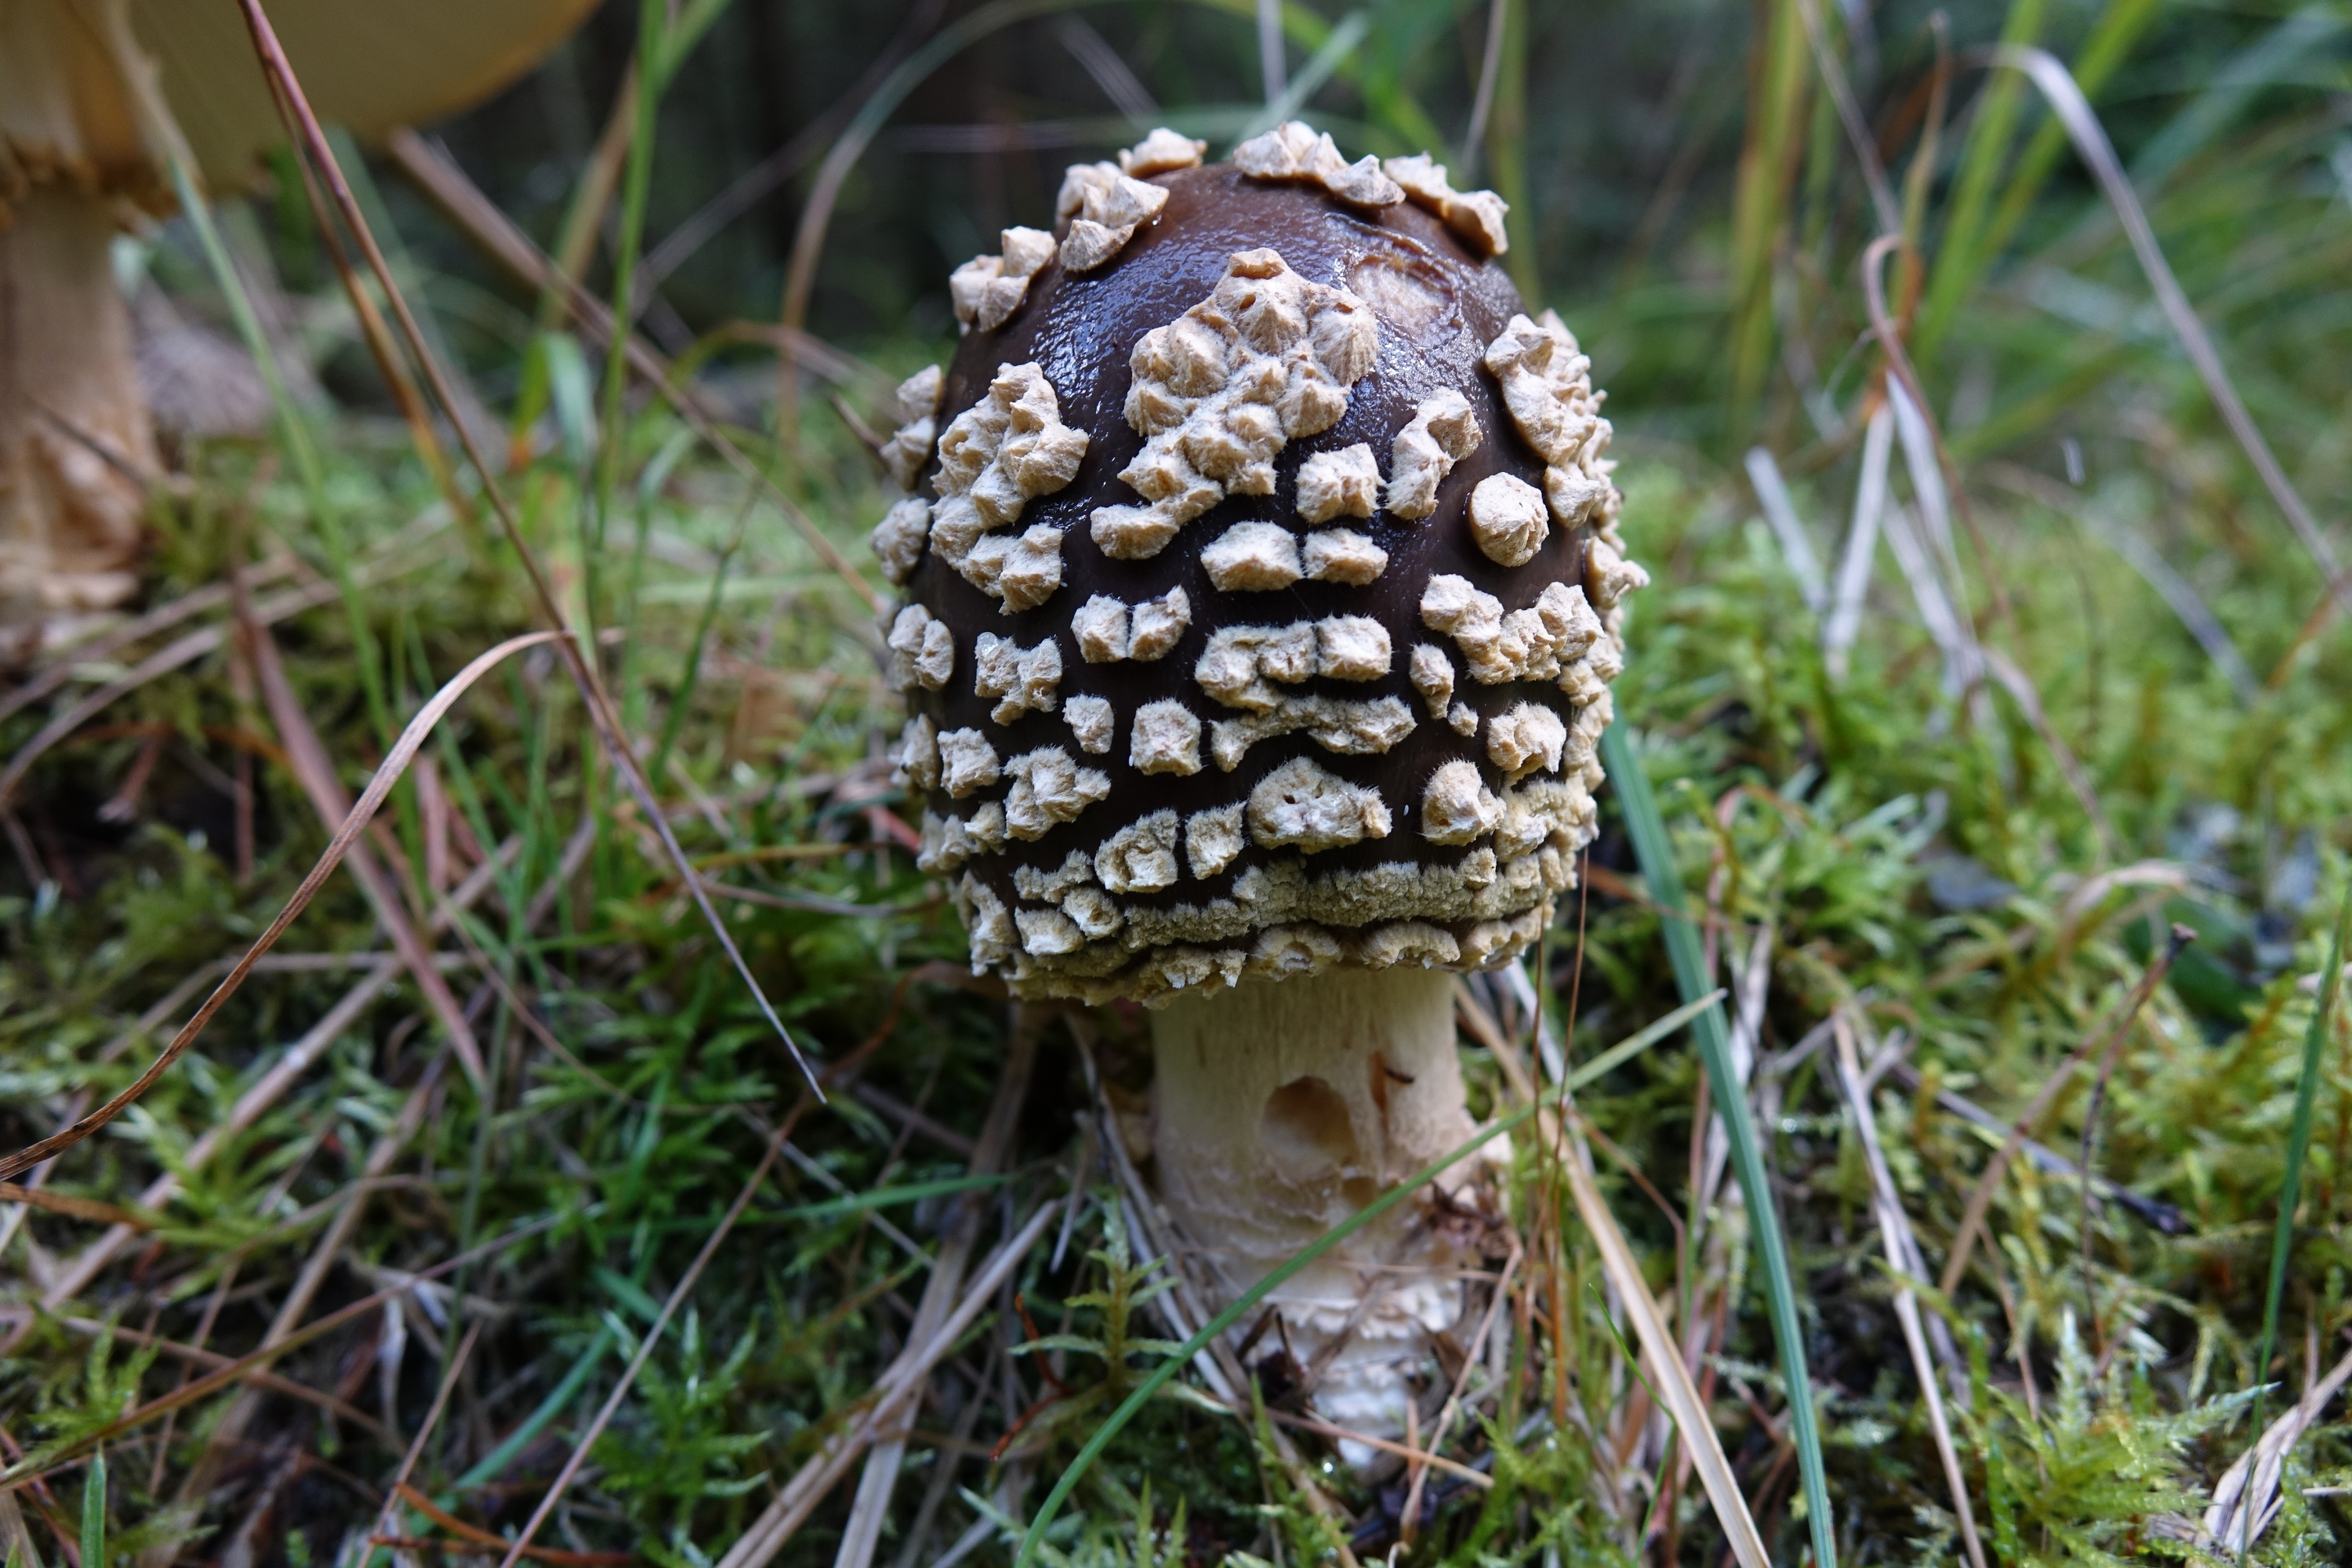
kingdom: Fungi
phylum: Basidiomycota
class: Agaricomycetes
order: Agaricales
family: Amanitaceae
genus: Amanita
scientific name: Amanita regalis
